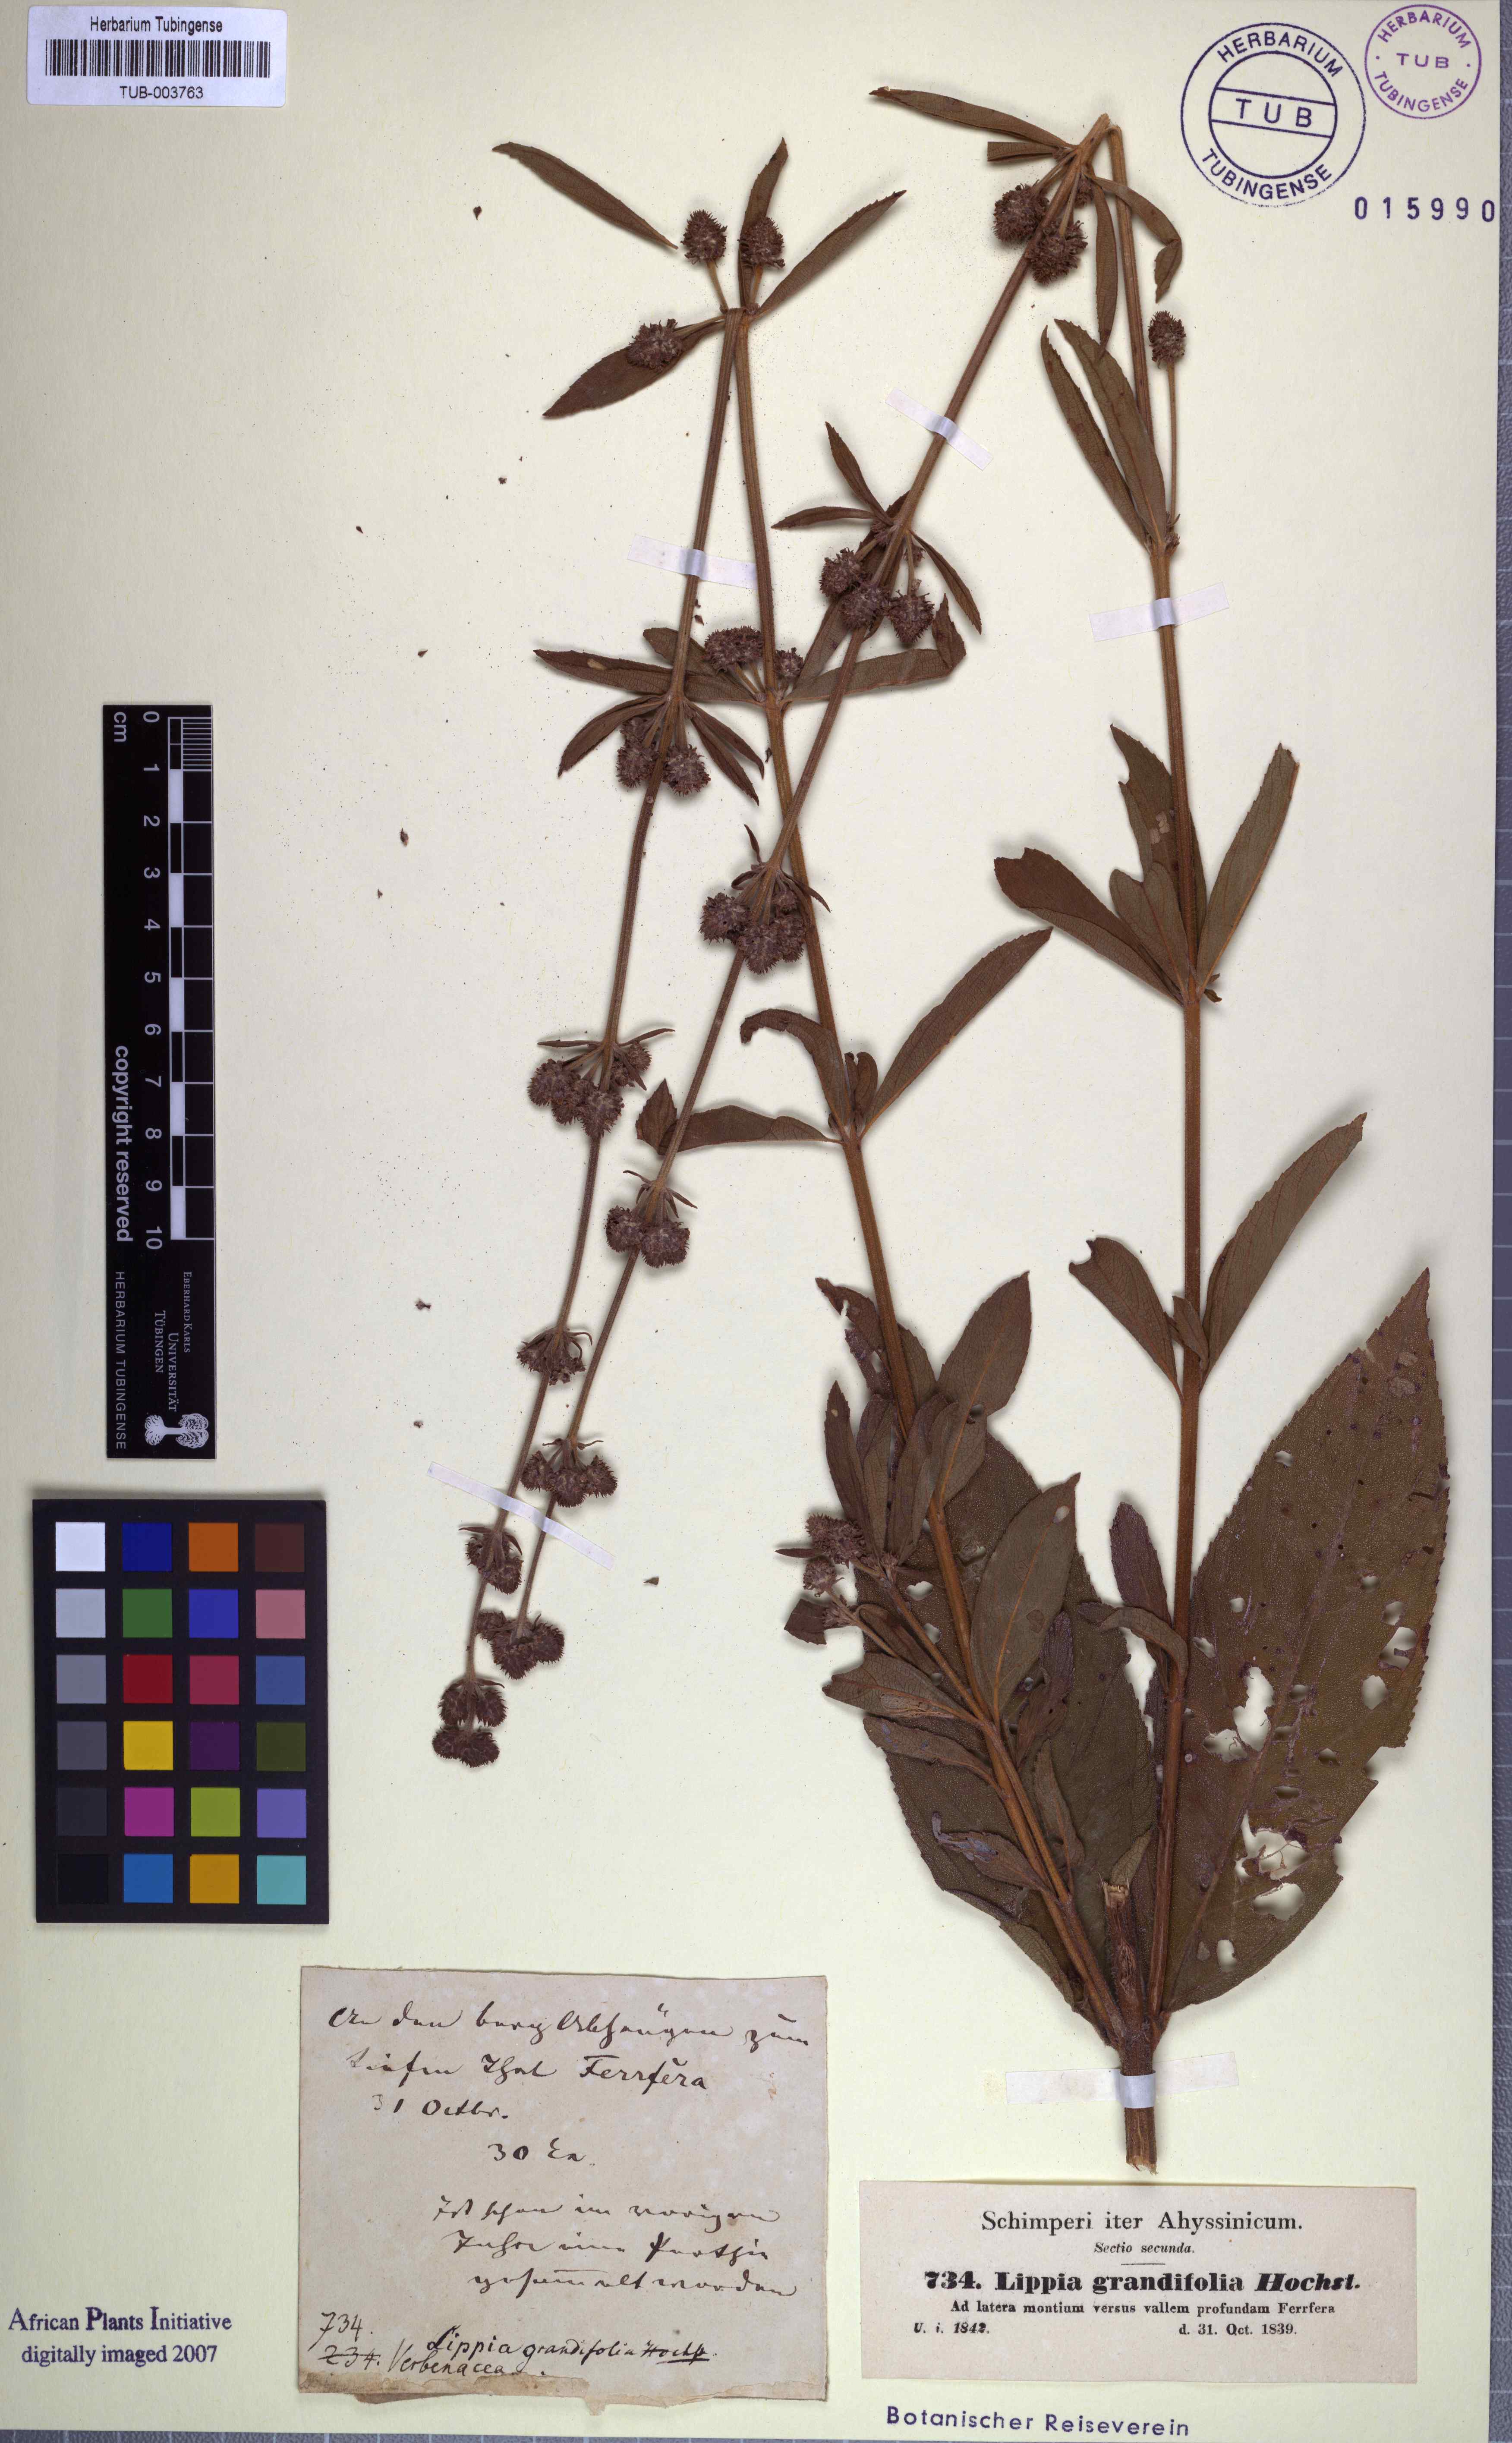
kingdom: Plantae
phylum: Tracheophyta
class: Magnoliopsida
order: Lamiales
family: Verbenaceae
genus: Lippia
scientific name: Lippia abyssinica
